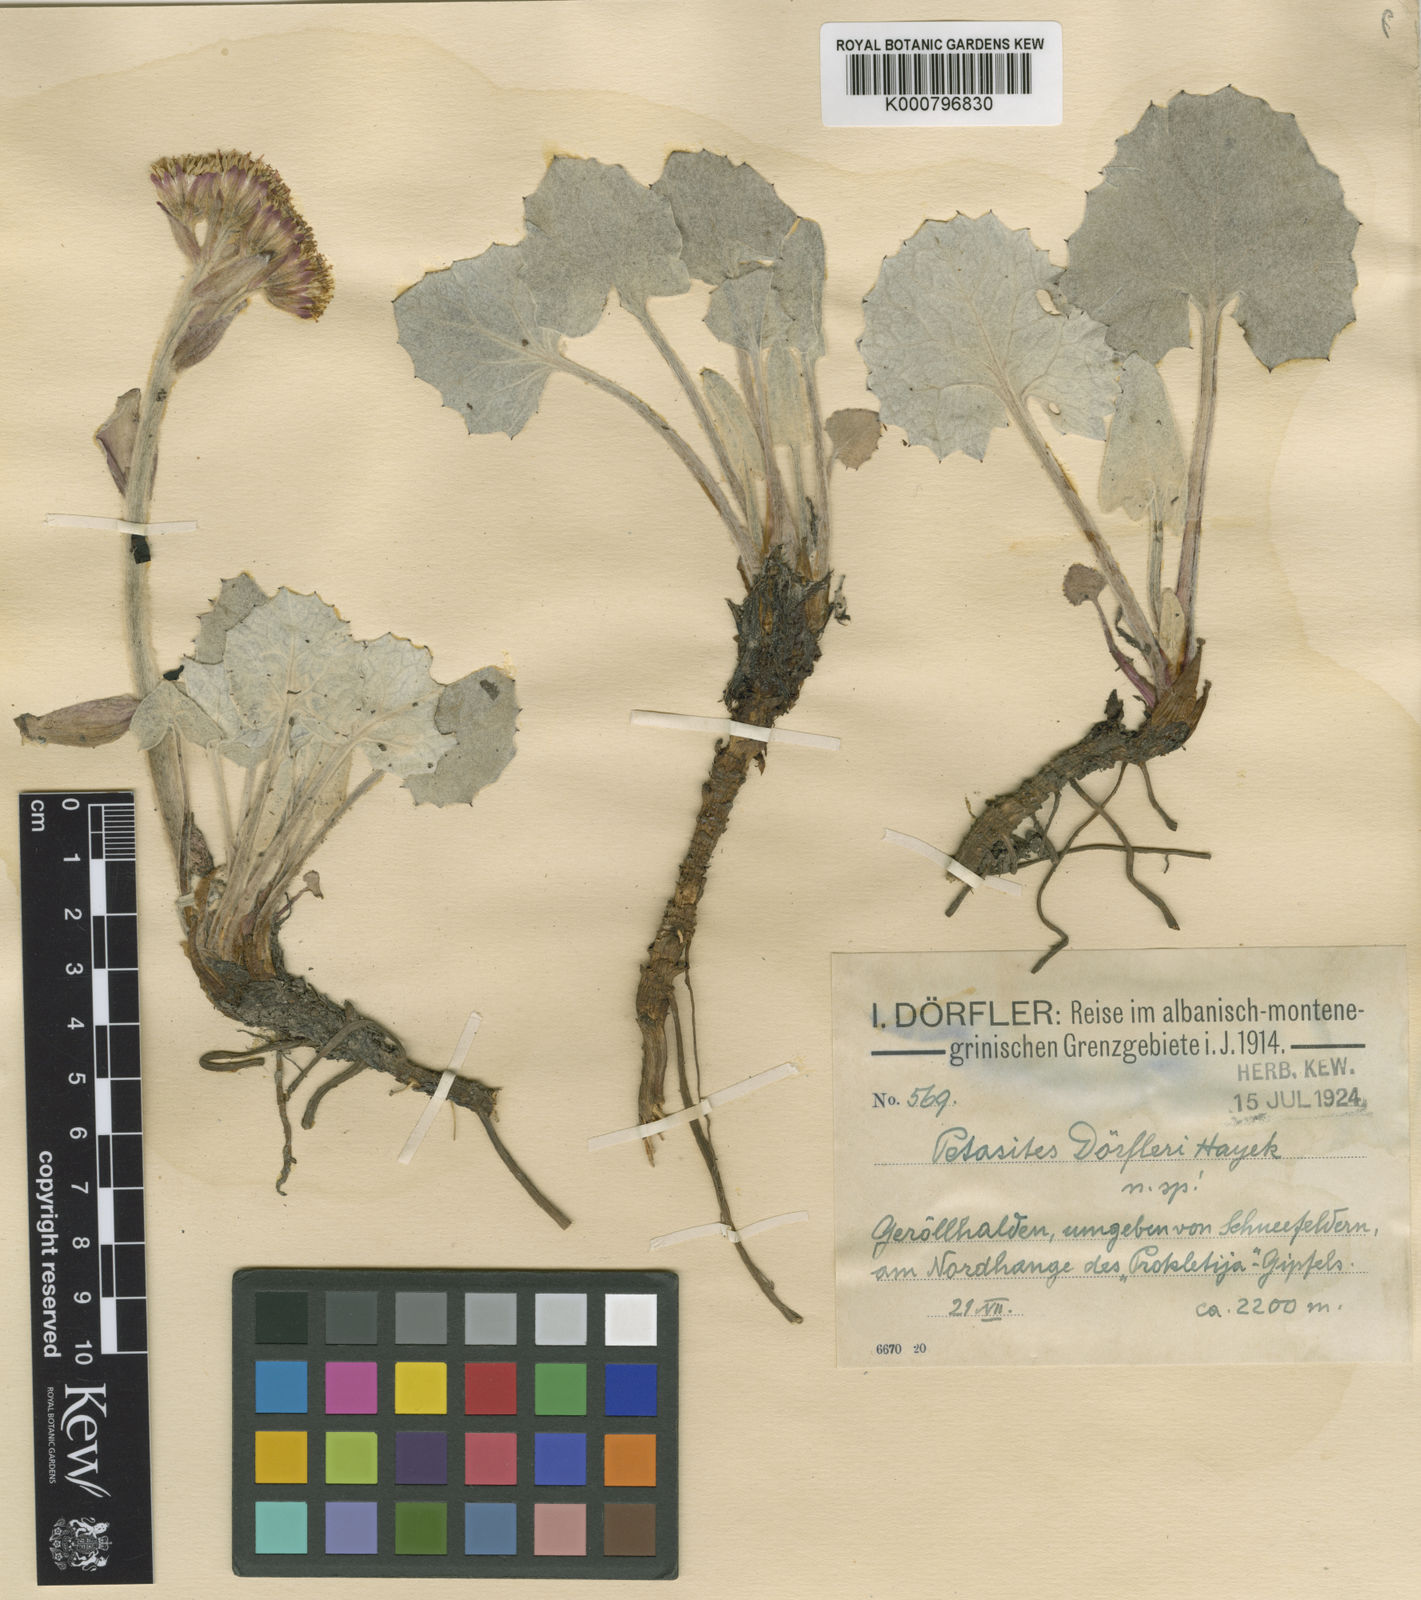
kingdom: Plantae
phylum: Tracheophyta
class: Magnoliopsida
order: Asterales
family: Asteraceae
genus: Petasites
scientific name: Petasites
